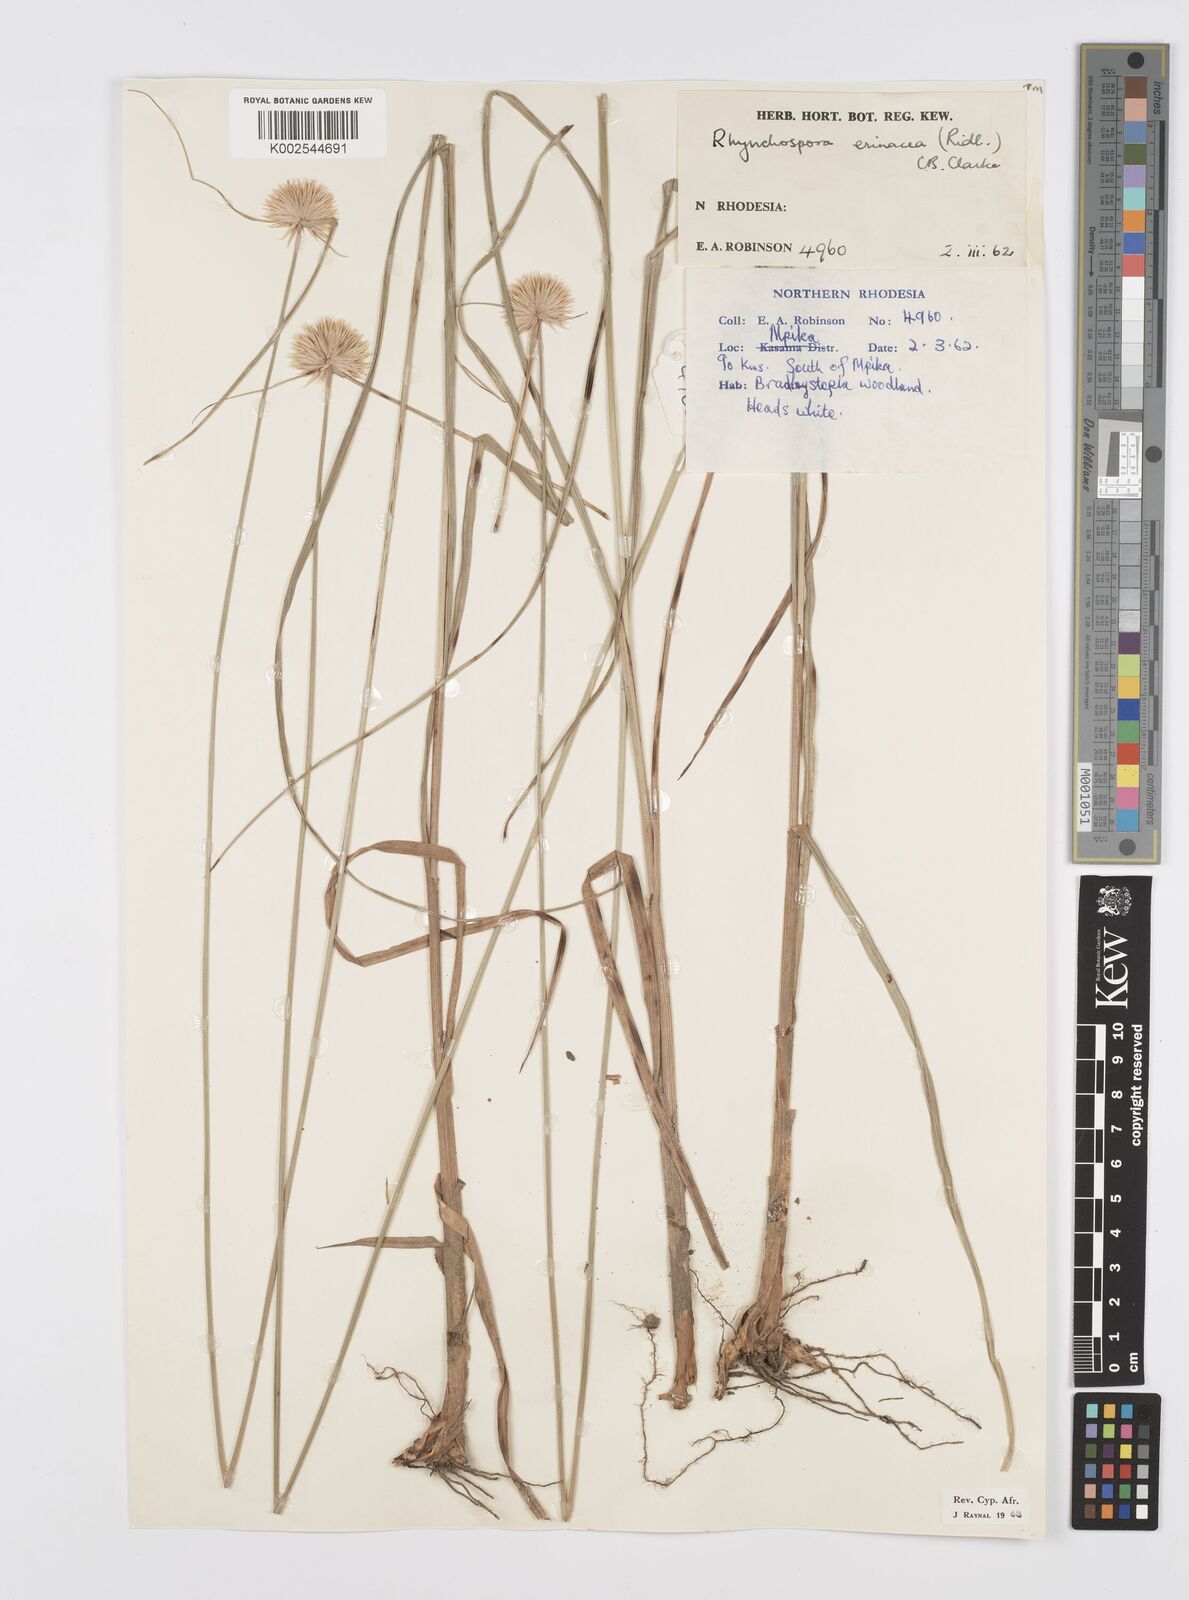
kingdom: Plantae
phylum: Tracheophyta
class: Liliopsida
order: Poales
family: Cyperaceae
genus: Cyperus
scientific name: Cyperus erinaceus
